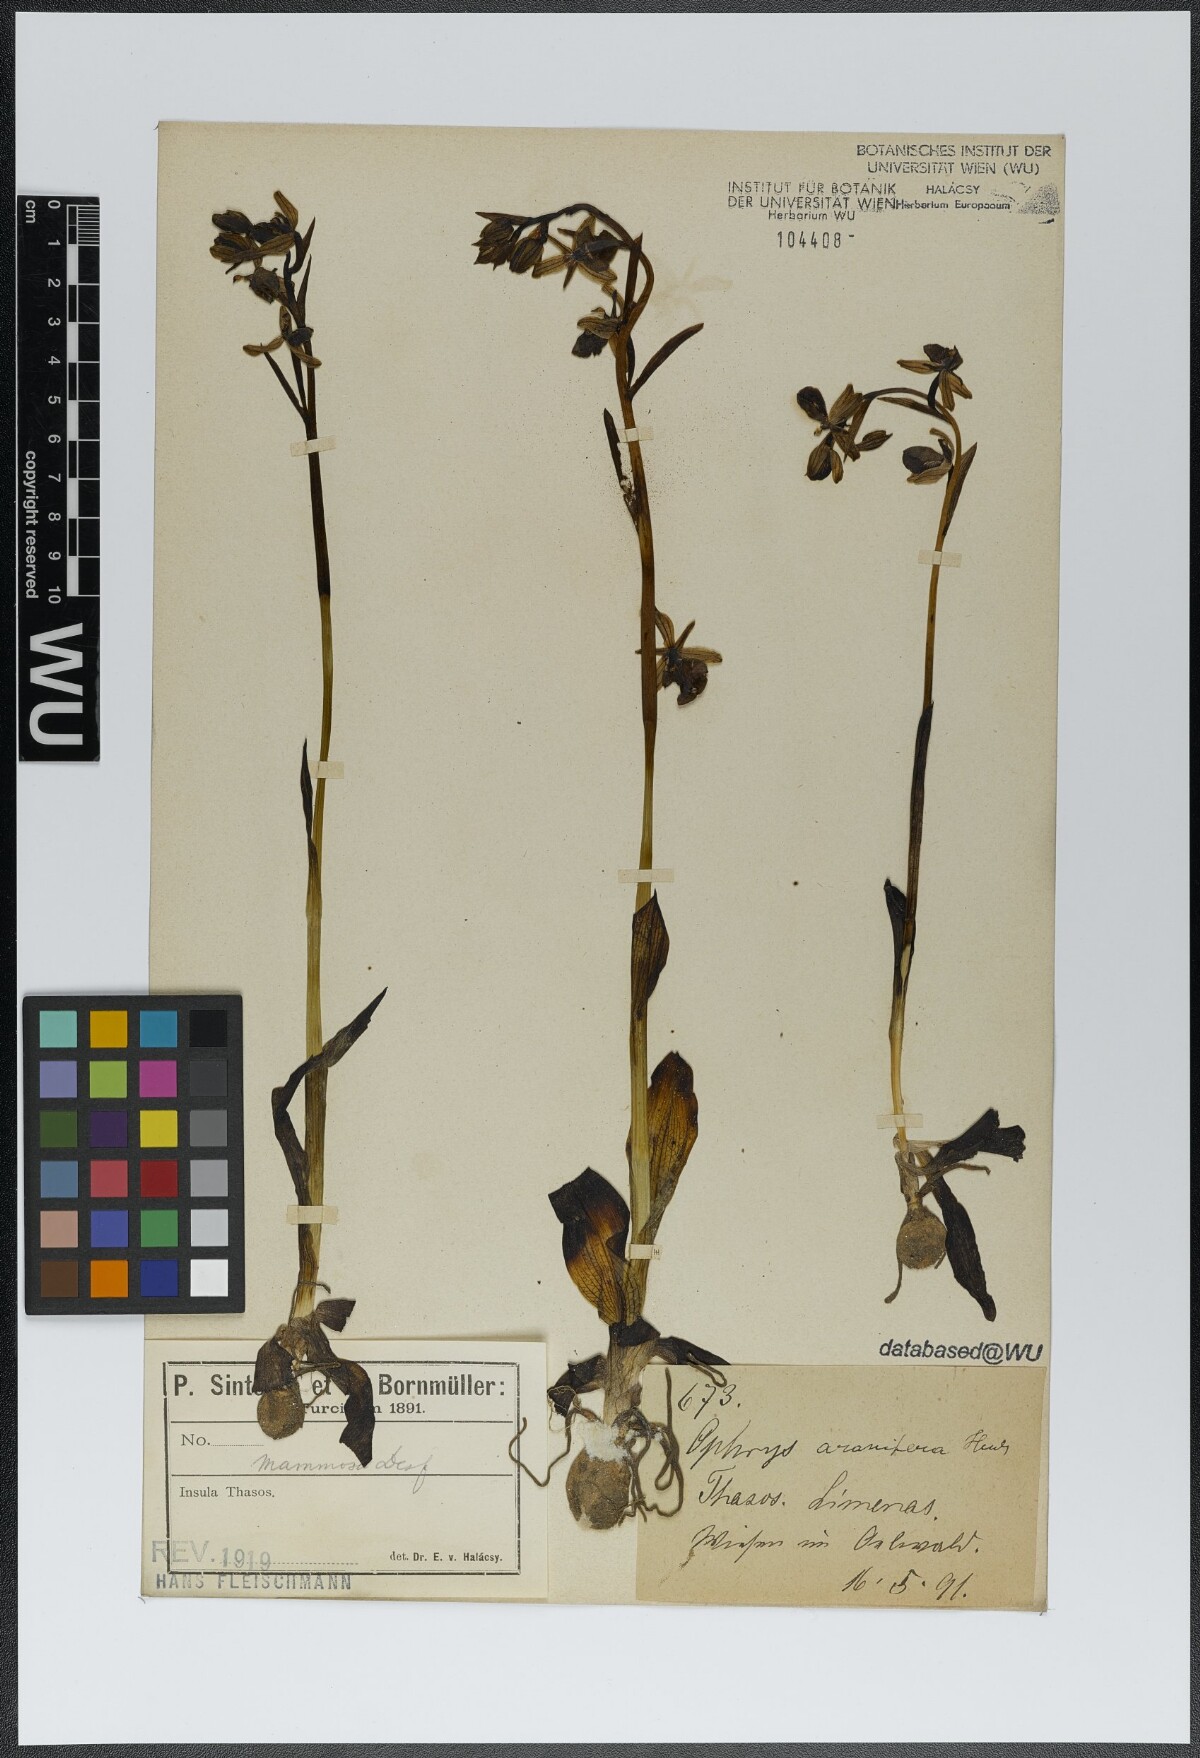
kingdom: Plantae
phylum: Tracheophyta
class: Liliopsida
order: Asparagales
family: Orchidaceae
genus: Ophrys
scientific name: Ophrys sphegodes
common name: Early spider-orchid
